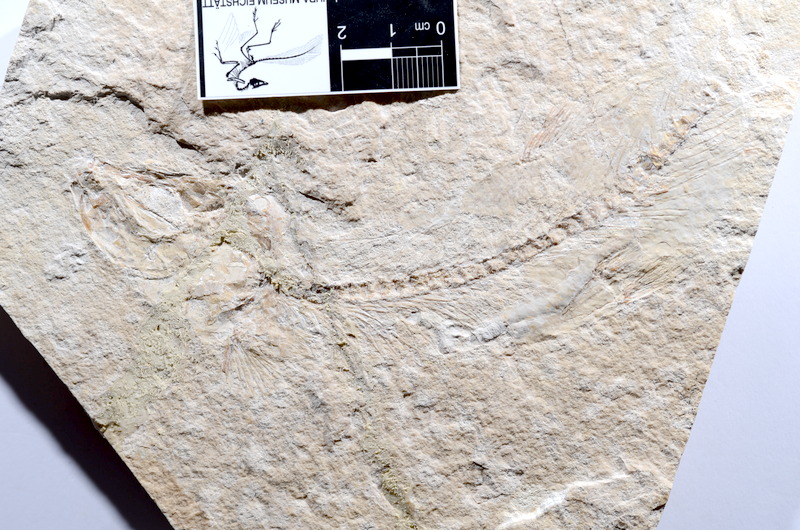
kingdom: Animalia
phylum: Chordata
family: Ascalaboidae
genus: Tharsis
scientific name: Tharsis dubius
